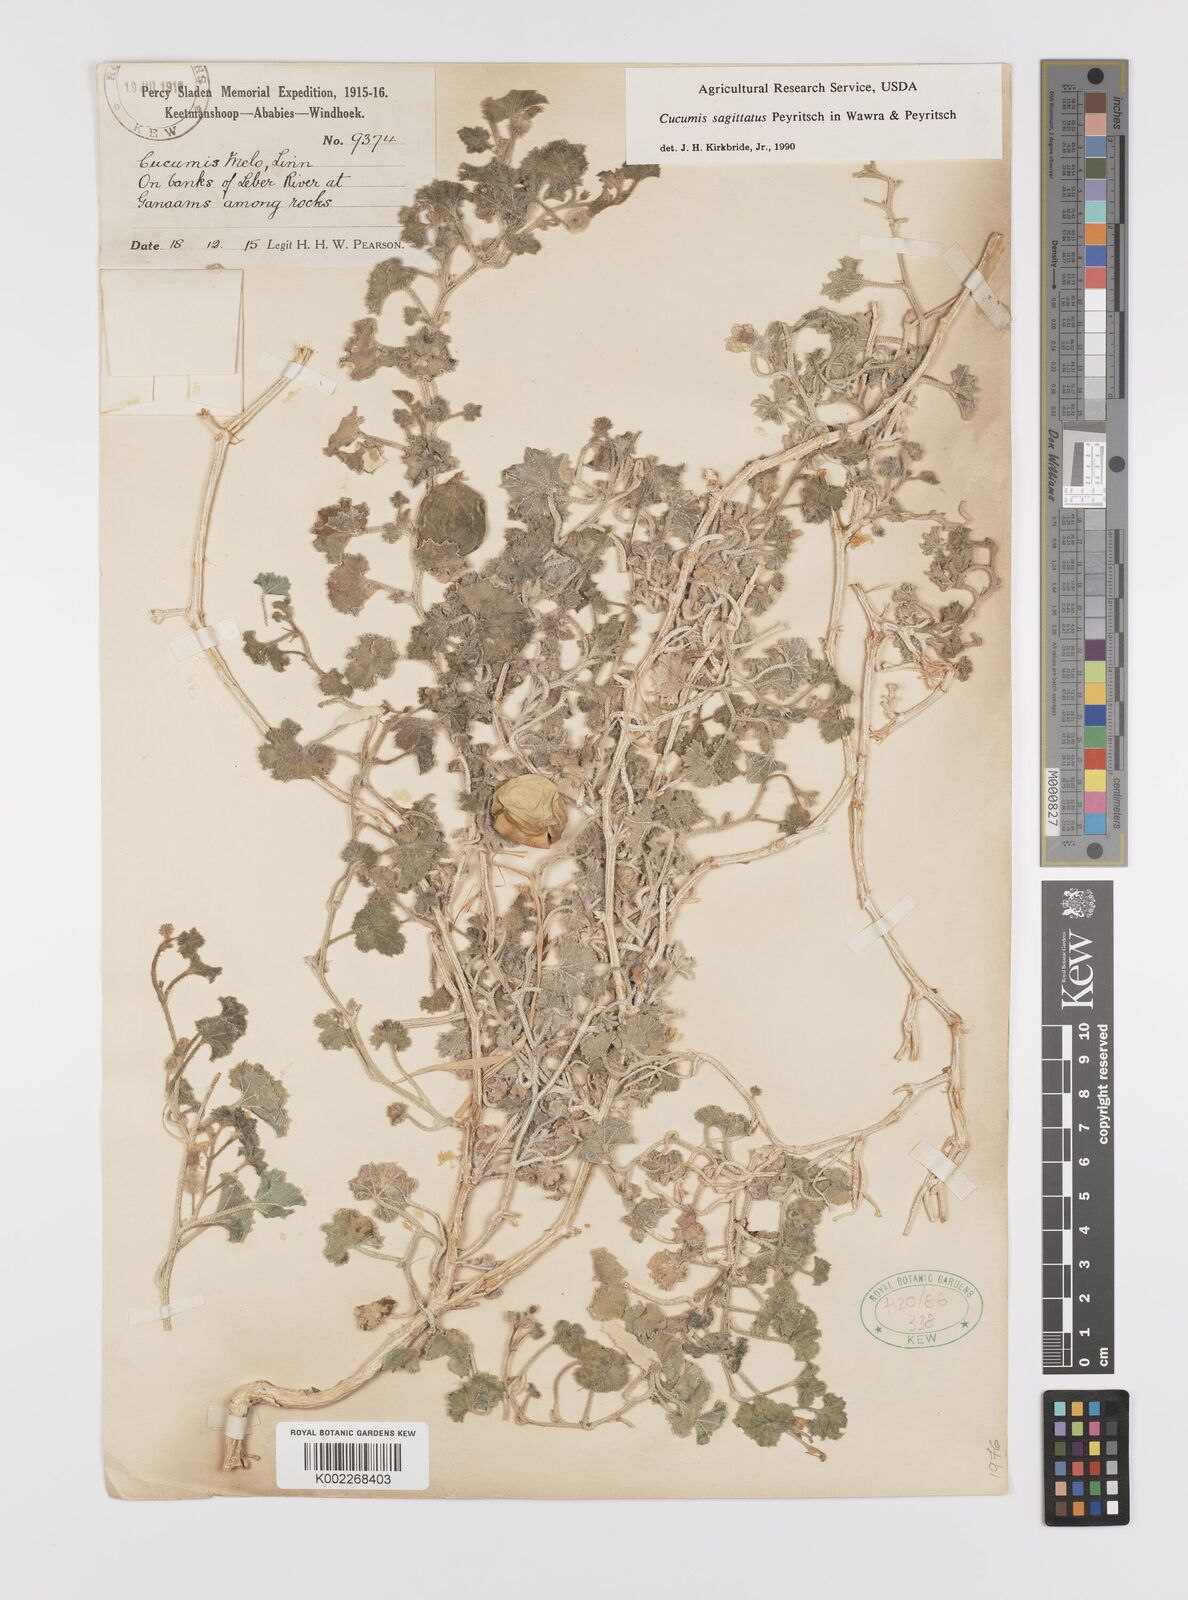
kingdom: Plantae
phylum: Tracheophyta
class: Magnoliopsida
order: Cucurbitales
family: Cucurbitaceae
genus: Cucumis
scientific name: Cucumis sagittatus
